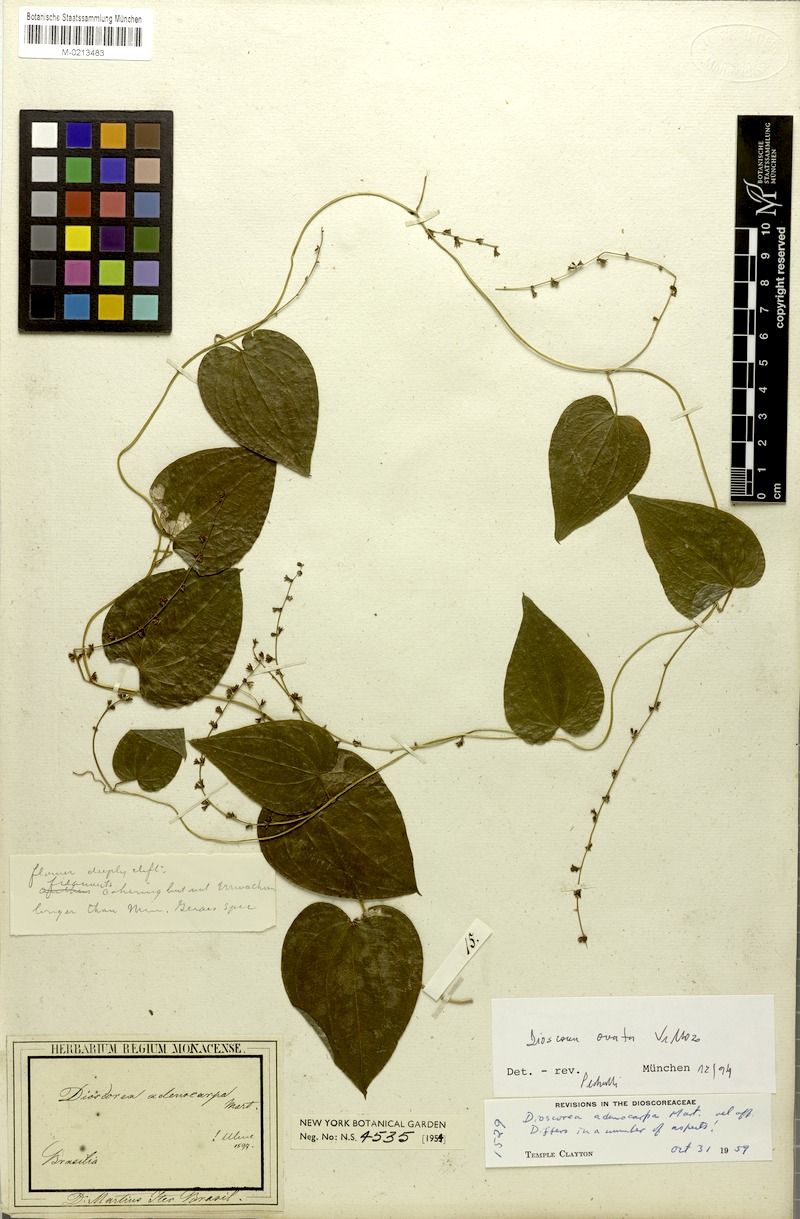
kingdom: Plantae
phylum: Tracheophyta
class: Liliopsida
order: Dioscoreales
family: Dioscoreaceae
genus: Dioscorea
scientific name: Dioscorea ovata
